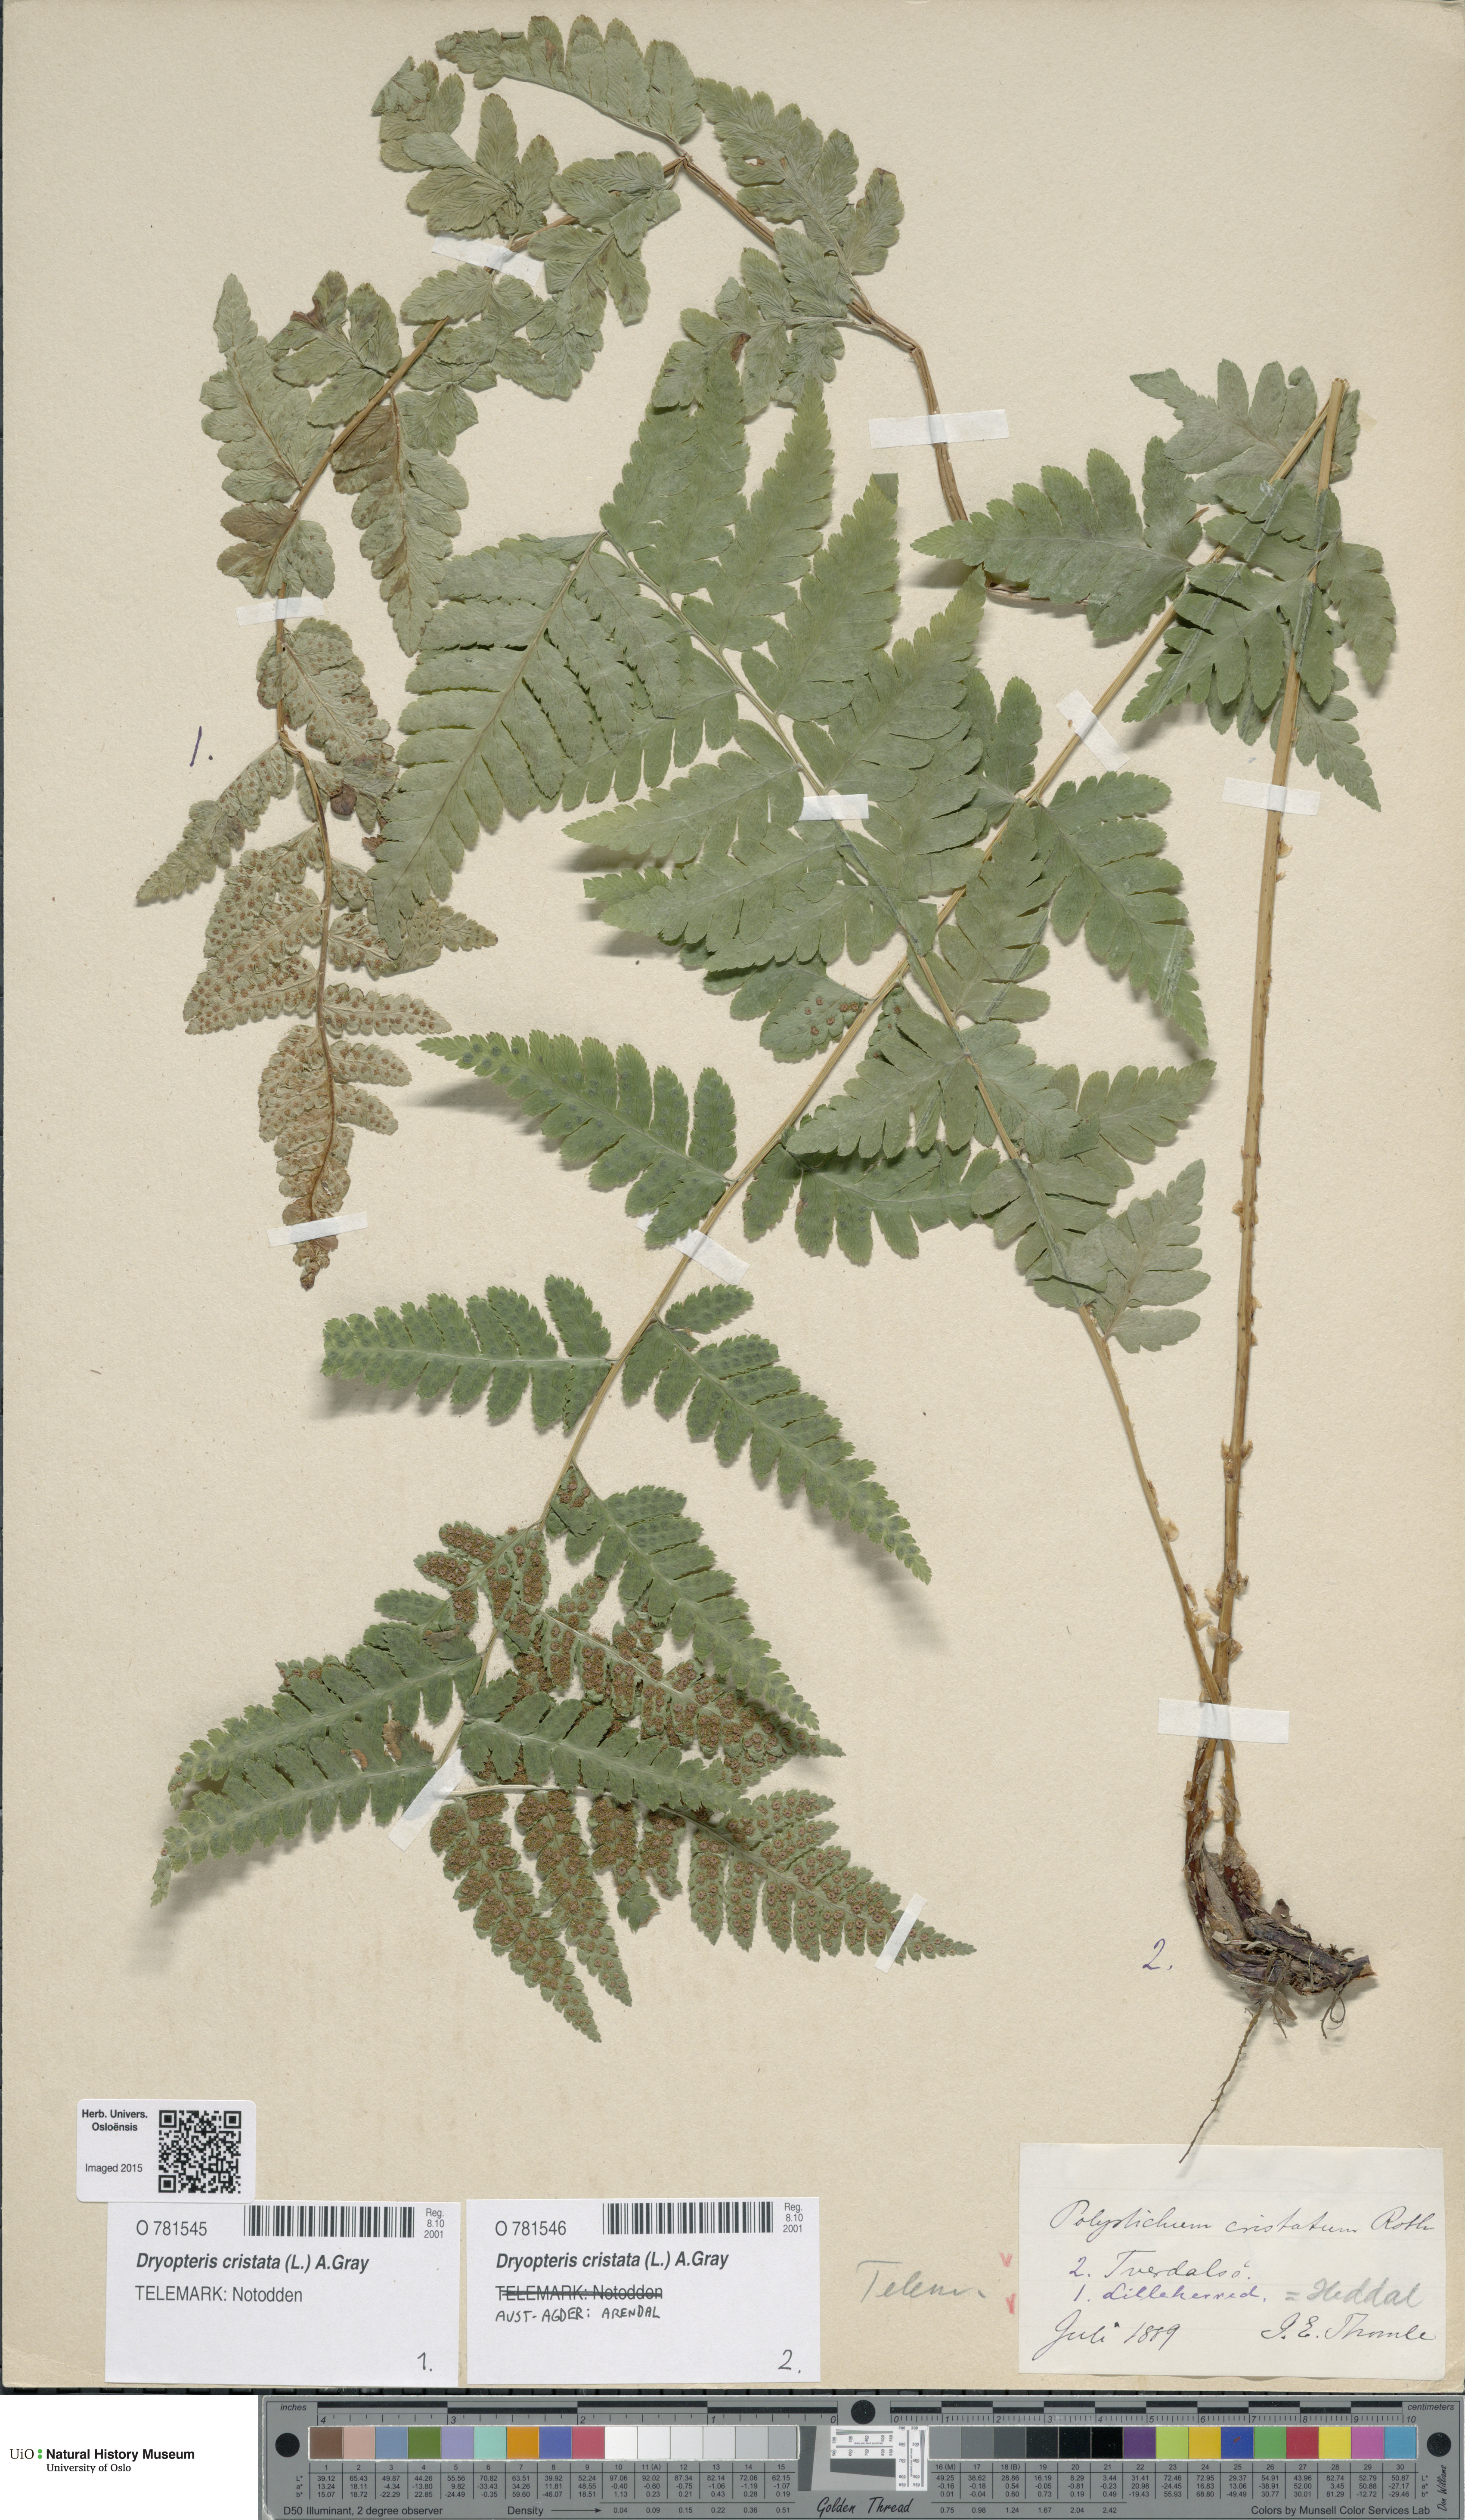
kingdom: Plantae
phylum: Tracheophyta
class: Polypodiopsida
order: Polypodiales
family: Dryopteridaceae
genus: Dryopteris
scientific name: Dryopteris cristata
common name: Crested wood fern
